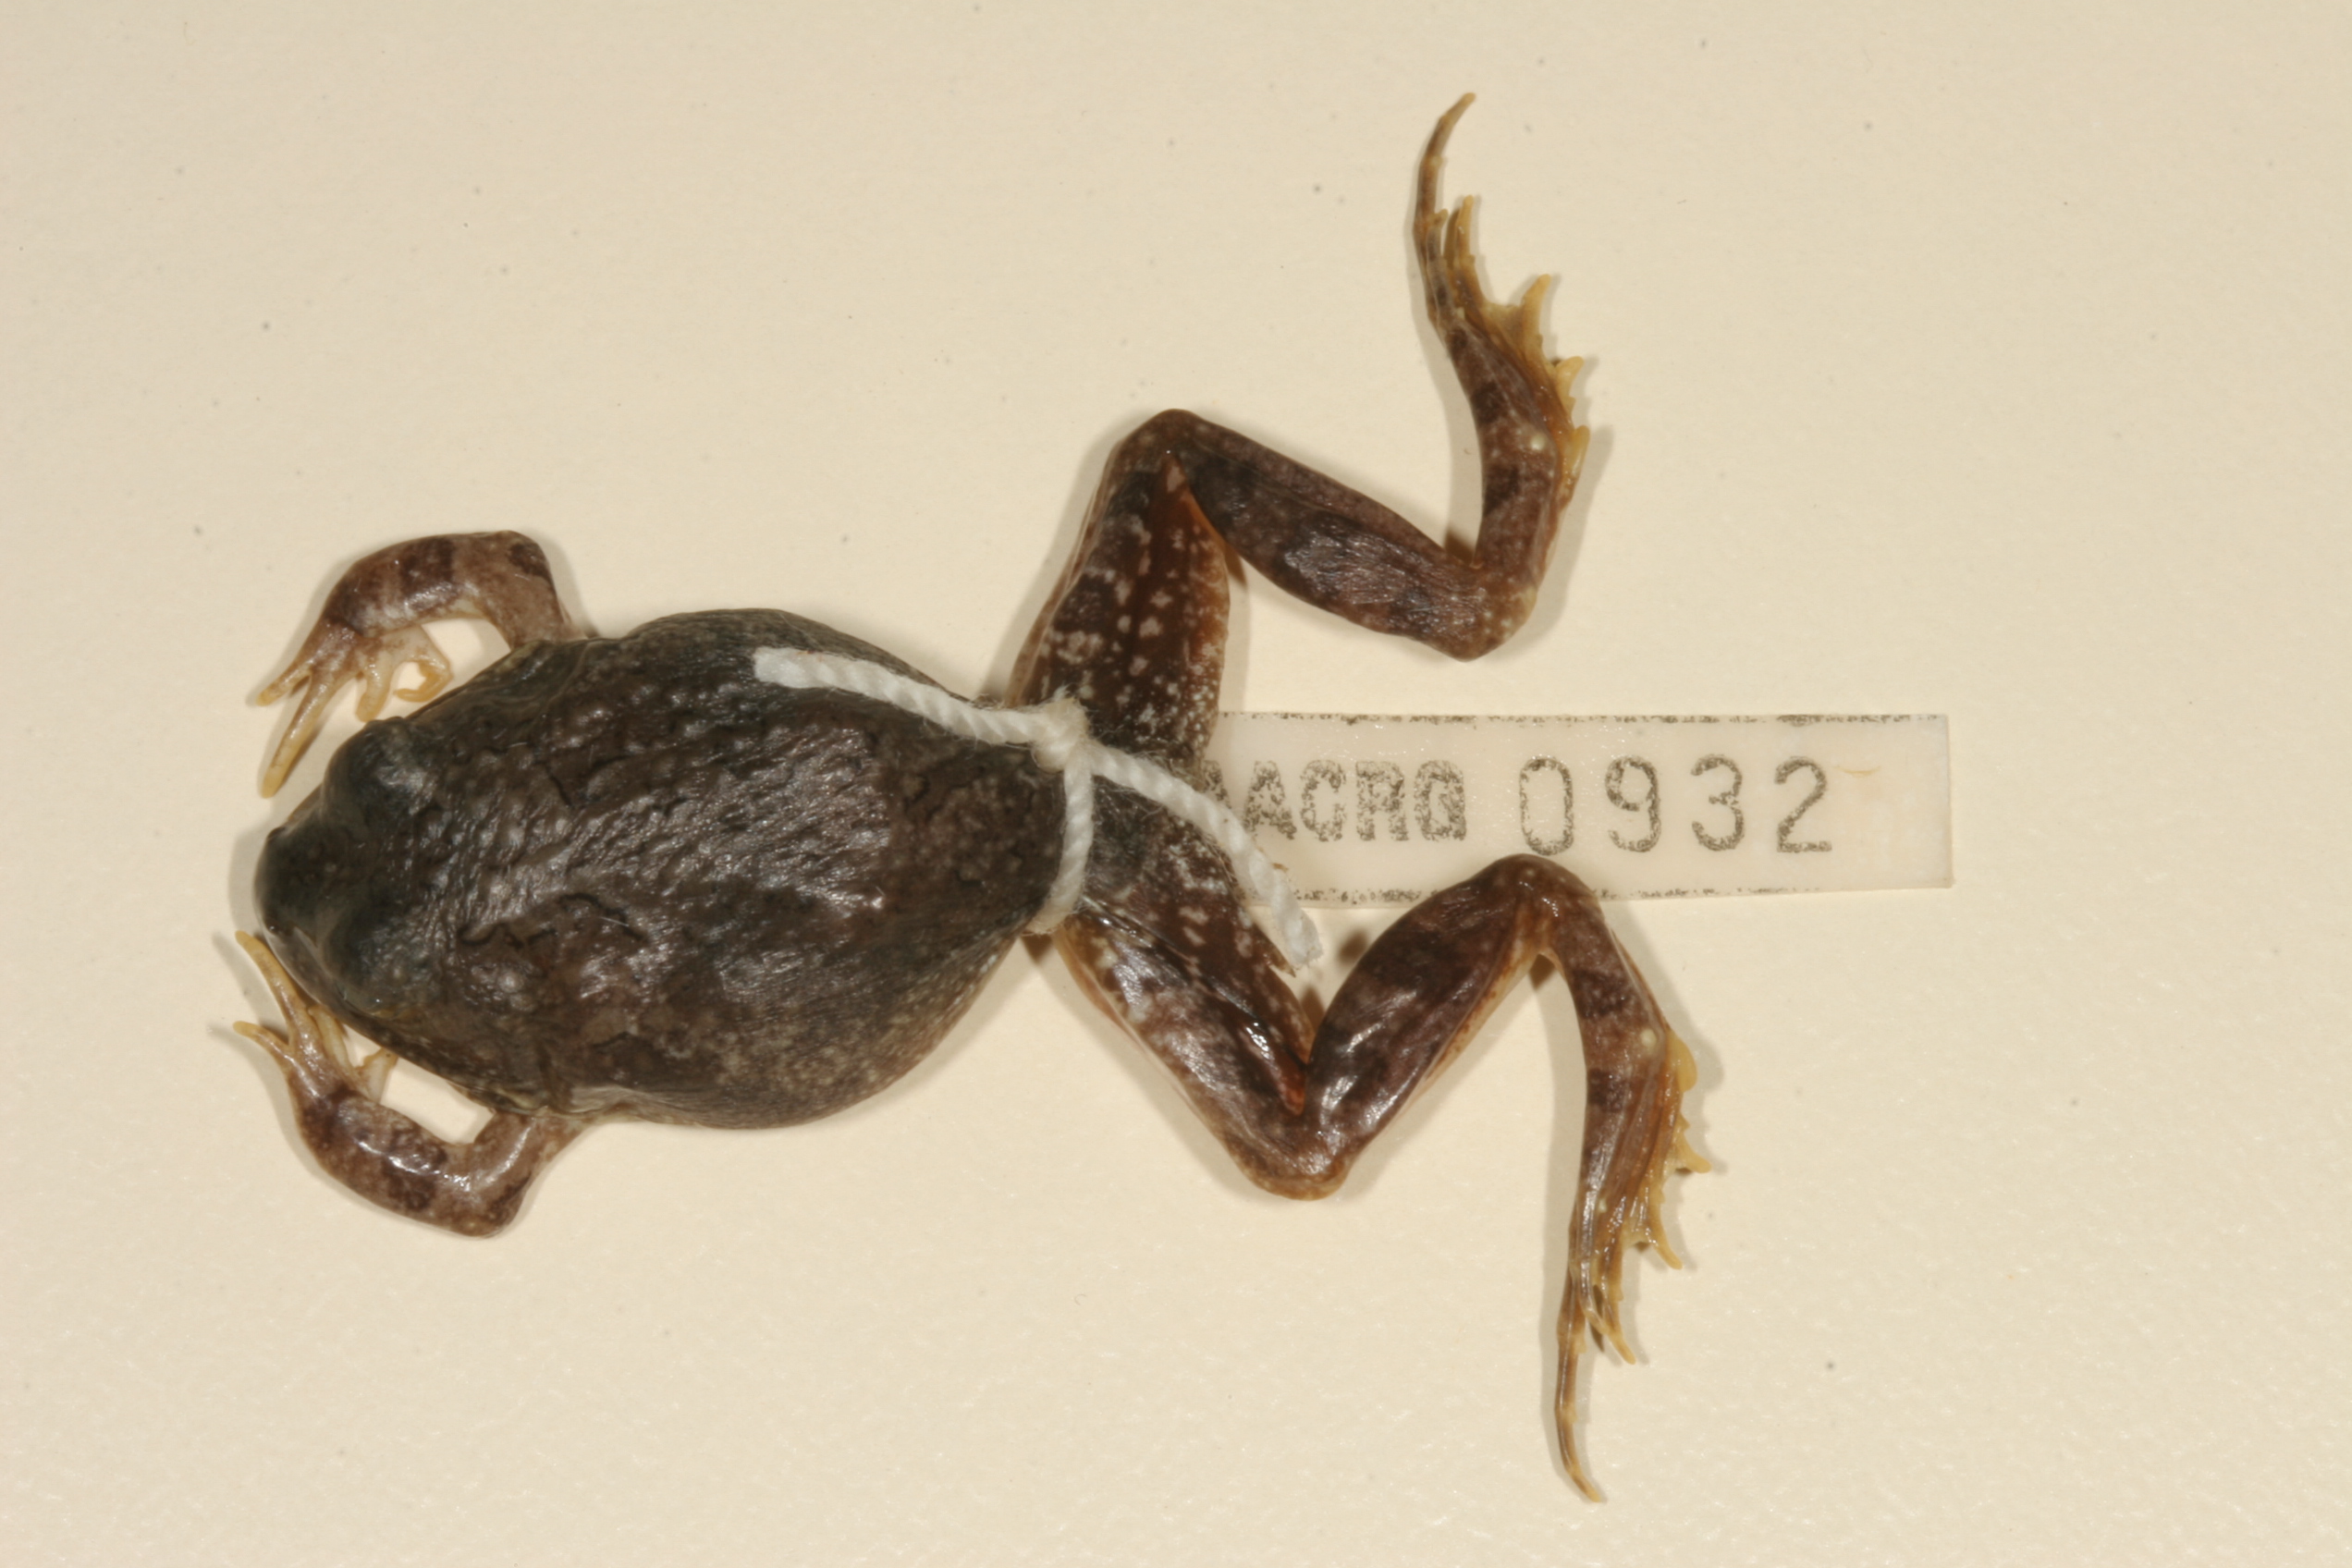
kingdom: Animalia
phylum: Chordata
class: Amphibia
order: Anura
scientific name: Anura
